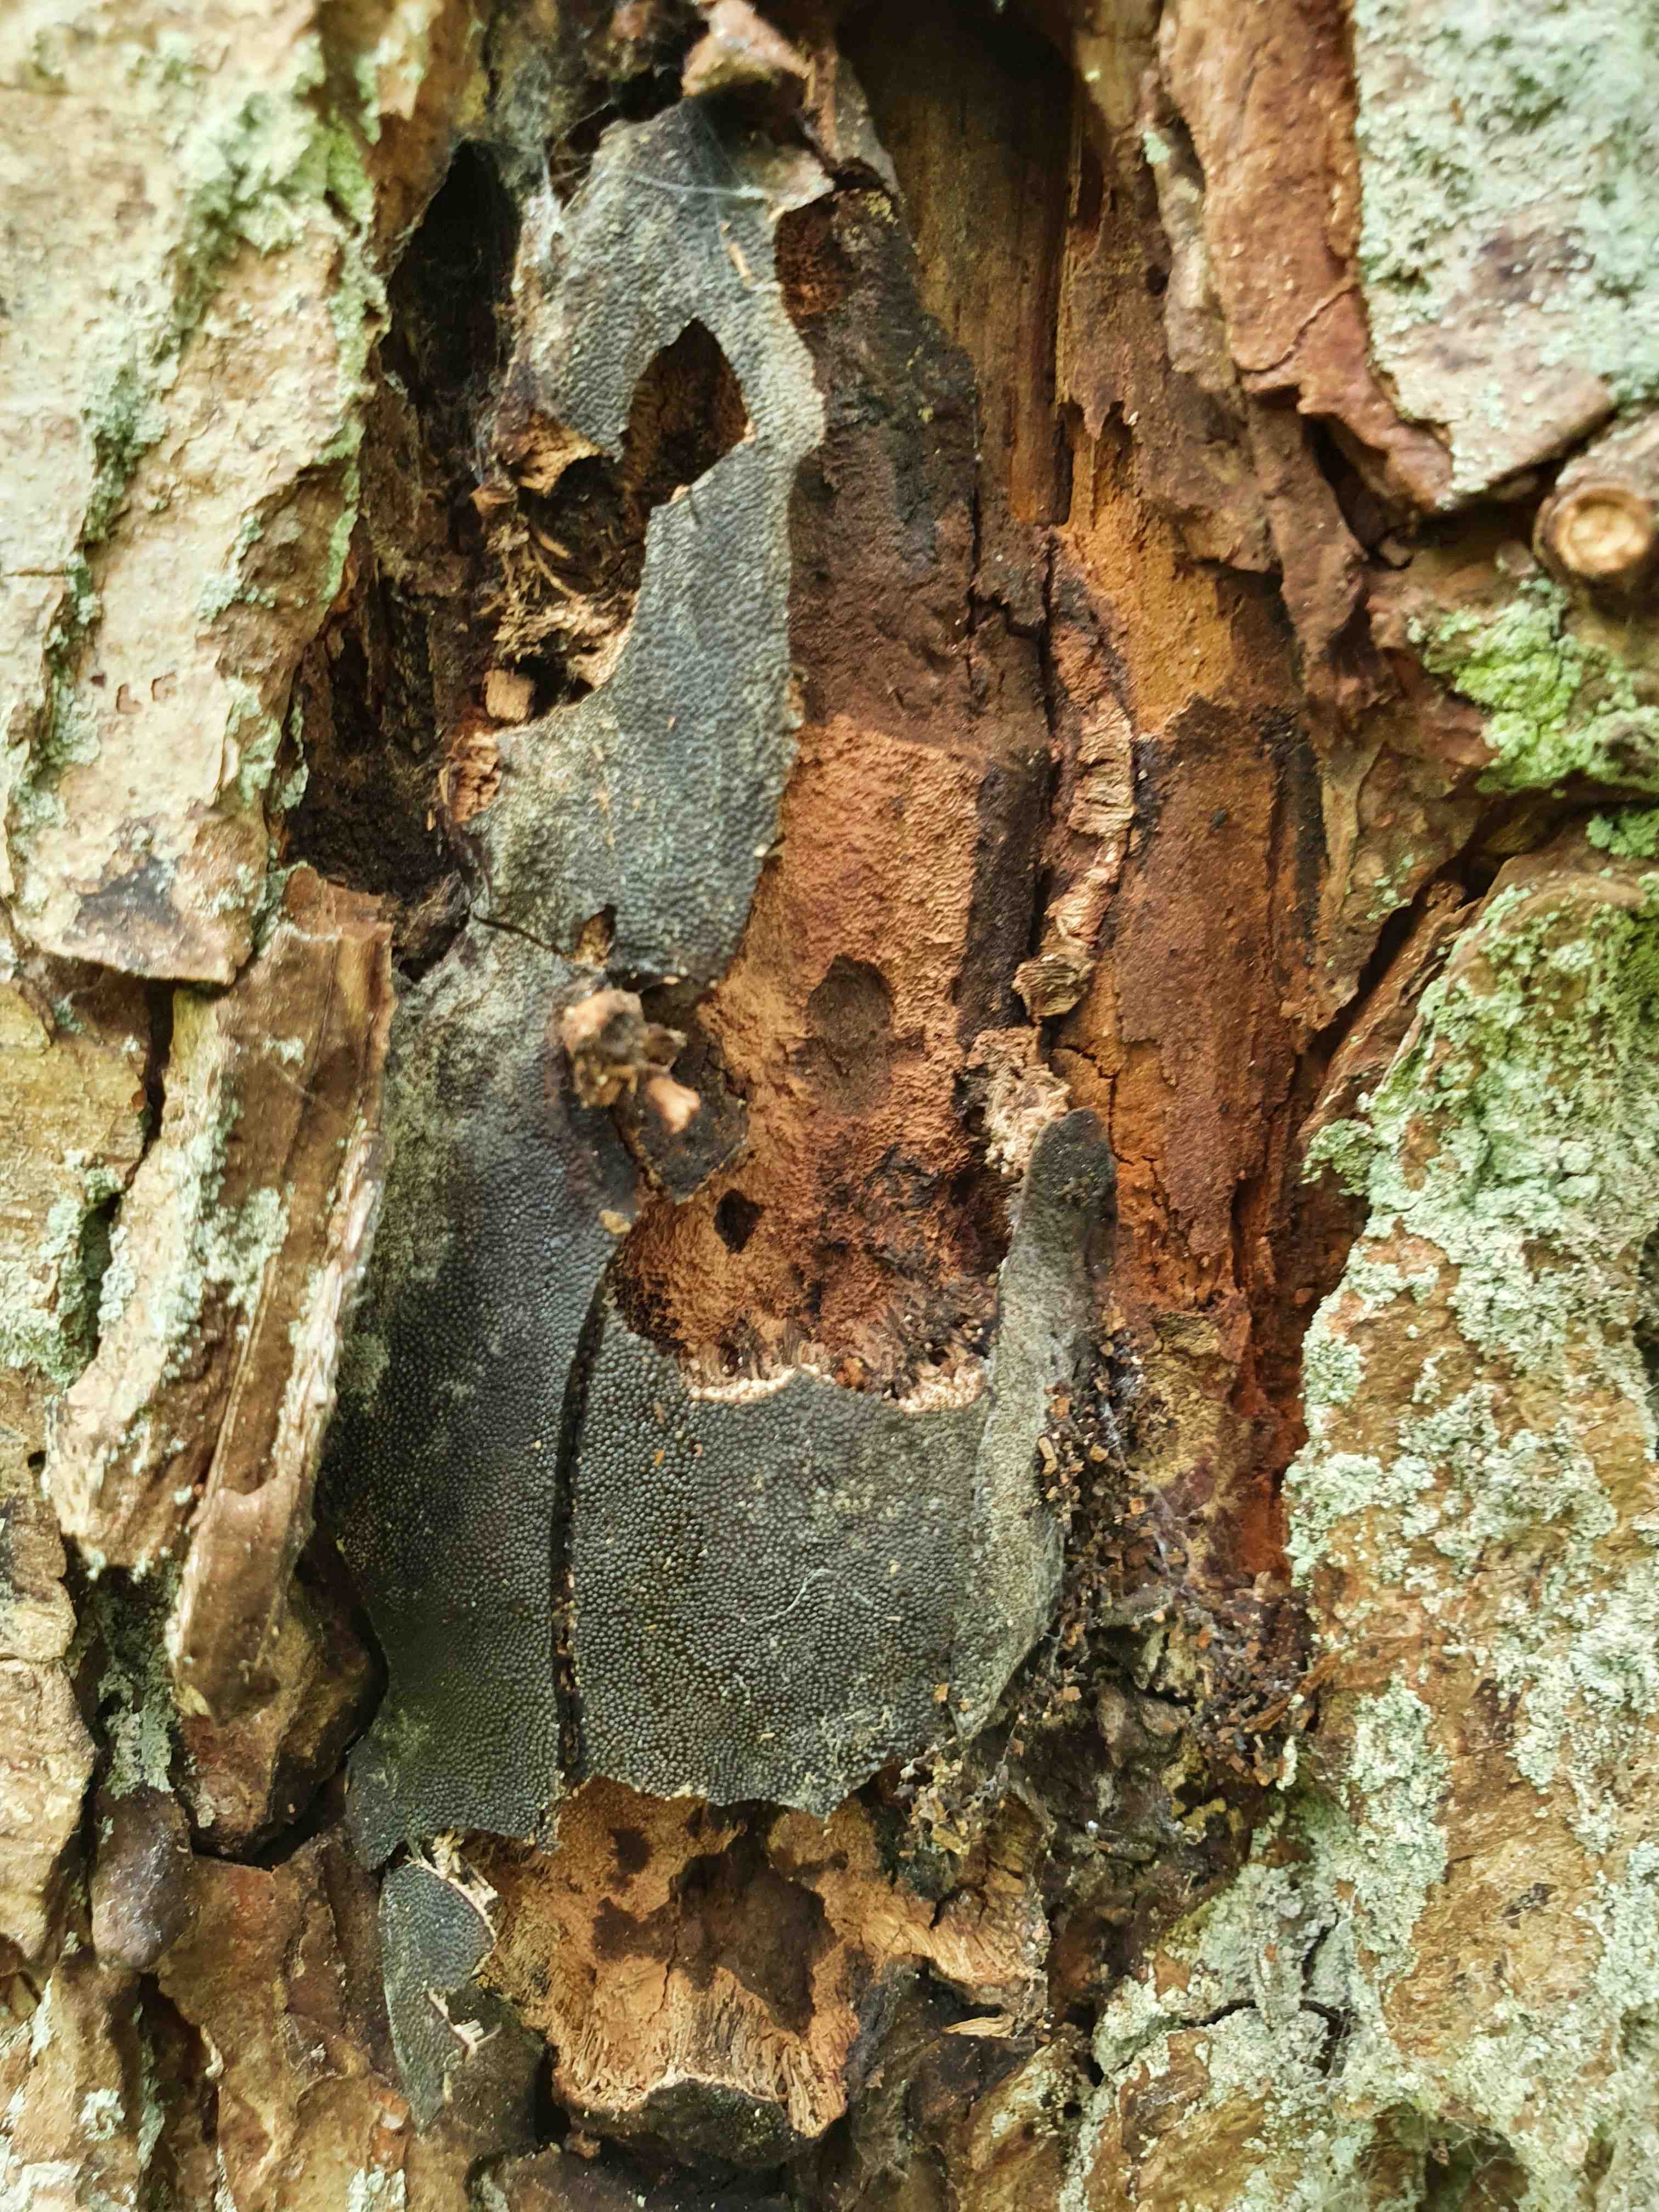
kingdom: Fungi
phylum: Ascomycota
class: Sordariomycetes
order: Boliniales
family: Boliniaceae
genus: Camarops
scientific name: Camarops polysperma
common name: elle-kulsnegl
